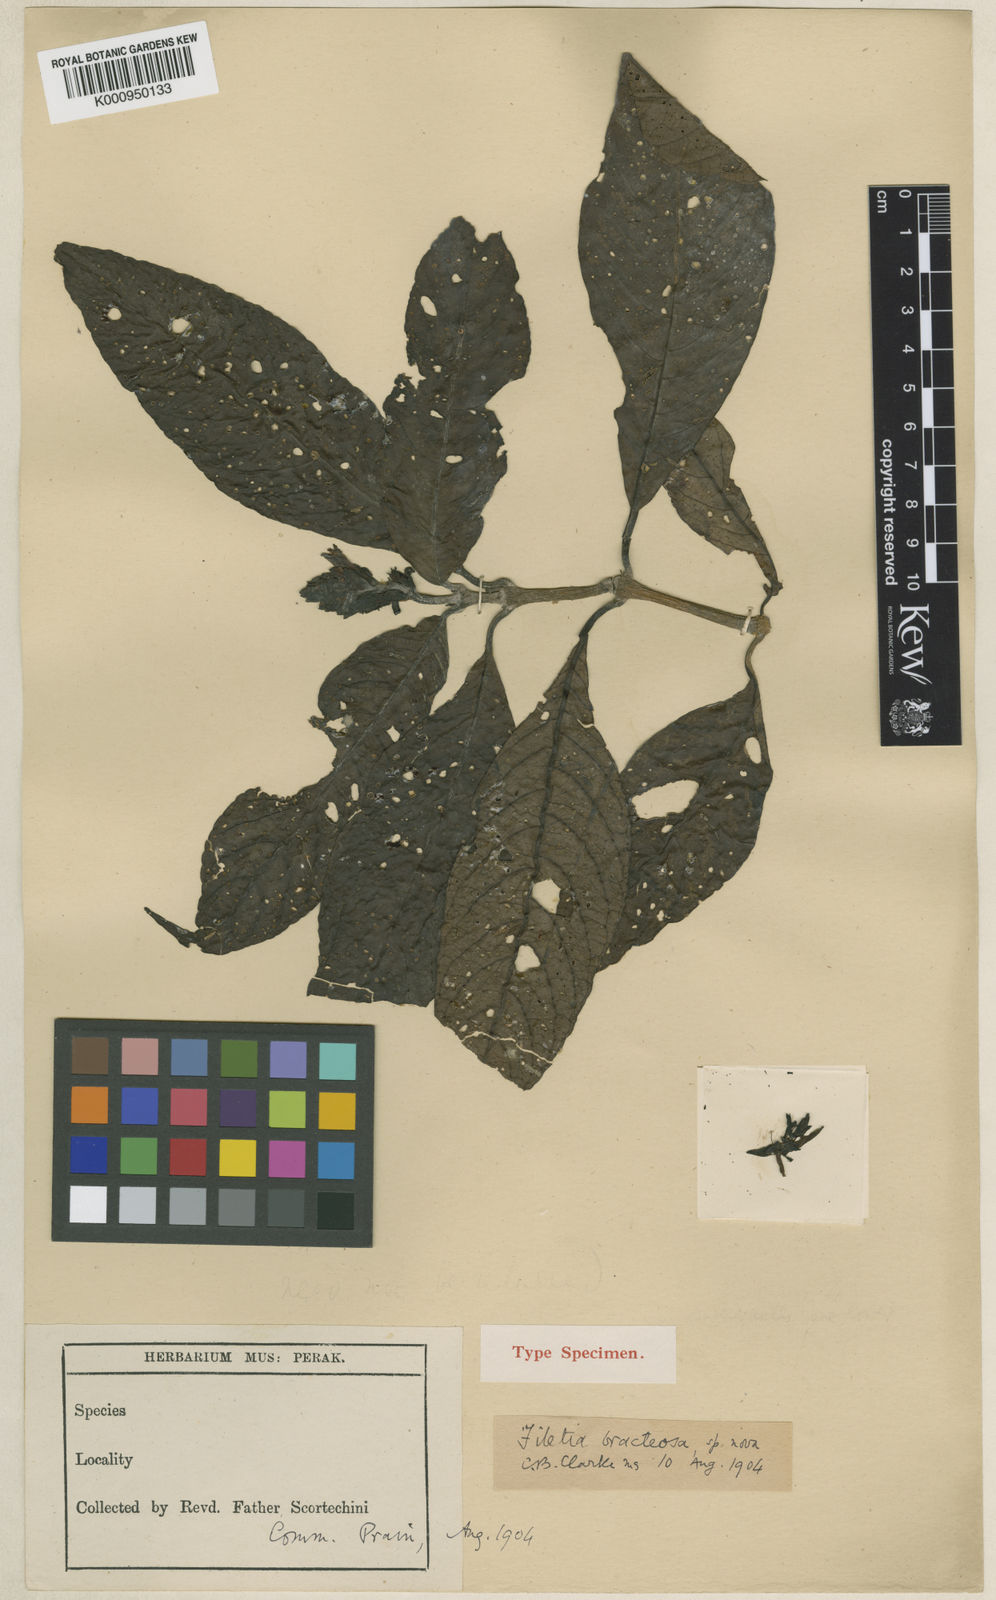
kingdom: Plantae
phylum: Tracheophyta
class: Magnoliopsida
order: Lamiales
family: Acanthaceae
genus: Filetia
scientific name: Filetia bracteosa
